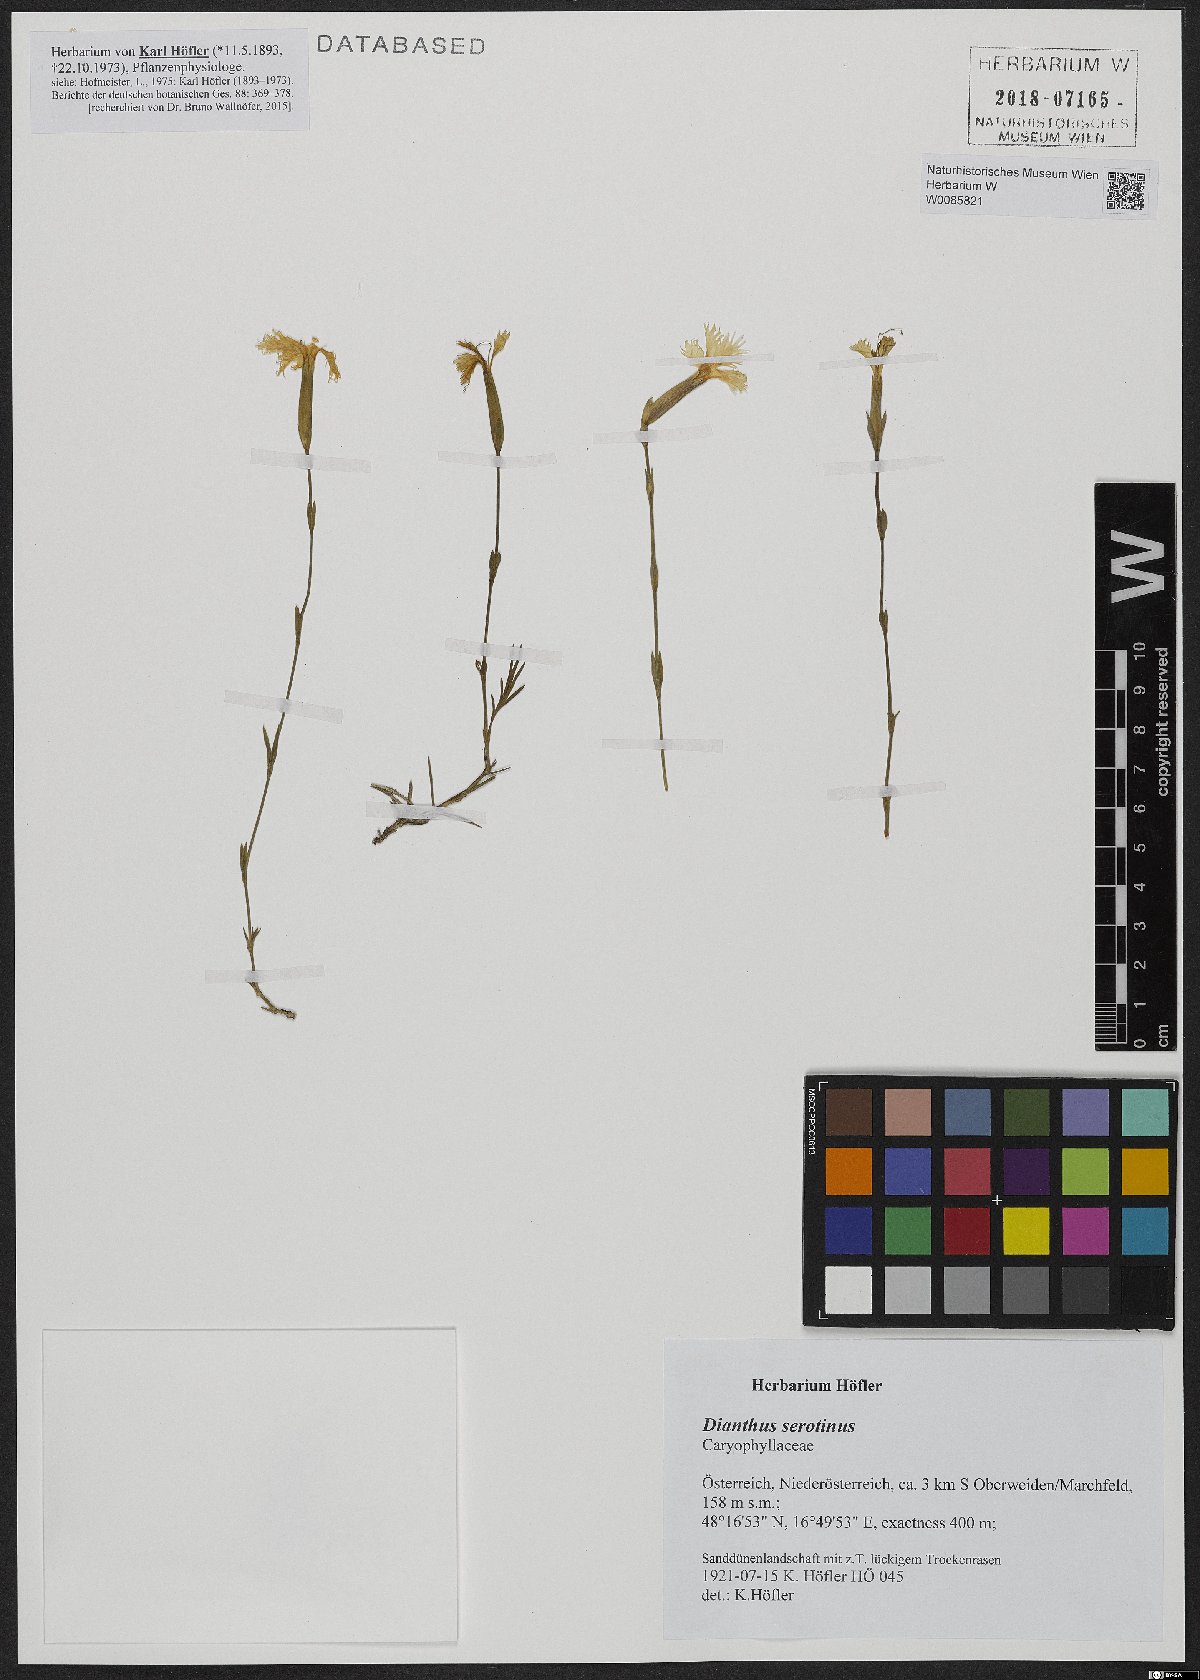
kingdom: Plantae
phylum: Tracheophyta
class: Magnoliopsida
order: Caryophyllales
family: Caryophyllaceae
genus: Dianthus
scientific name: Dianthus serotinus
